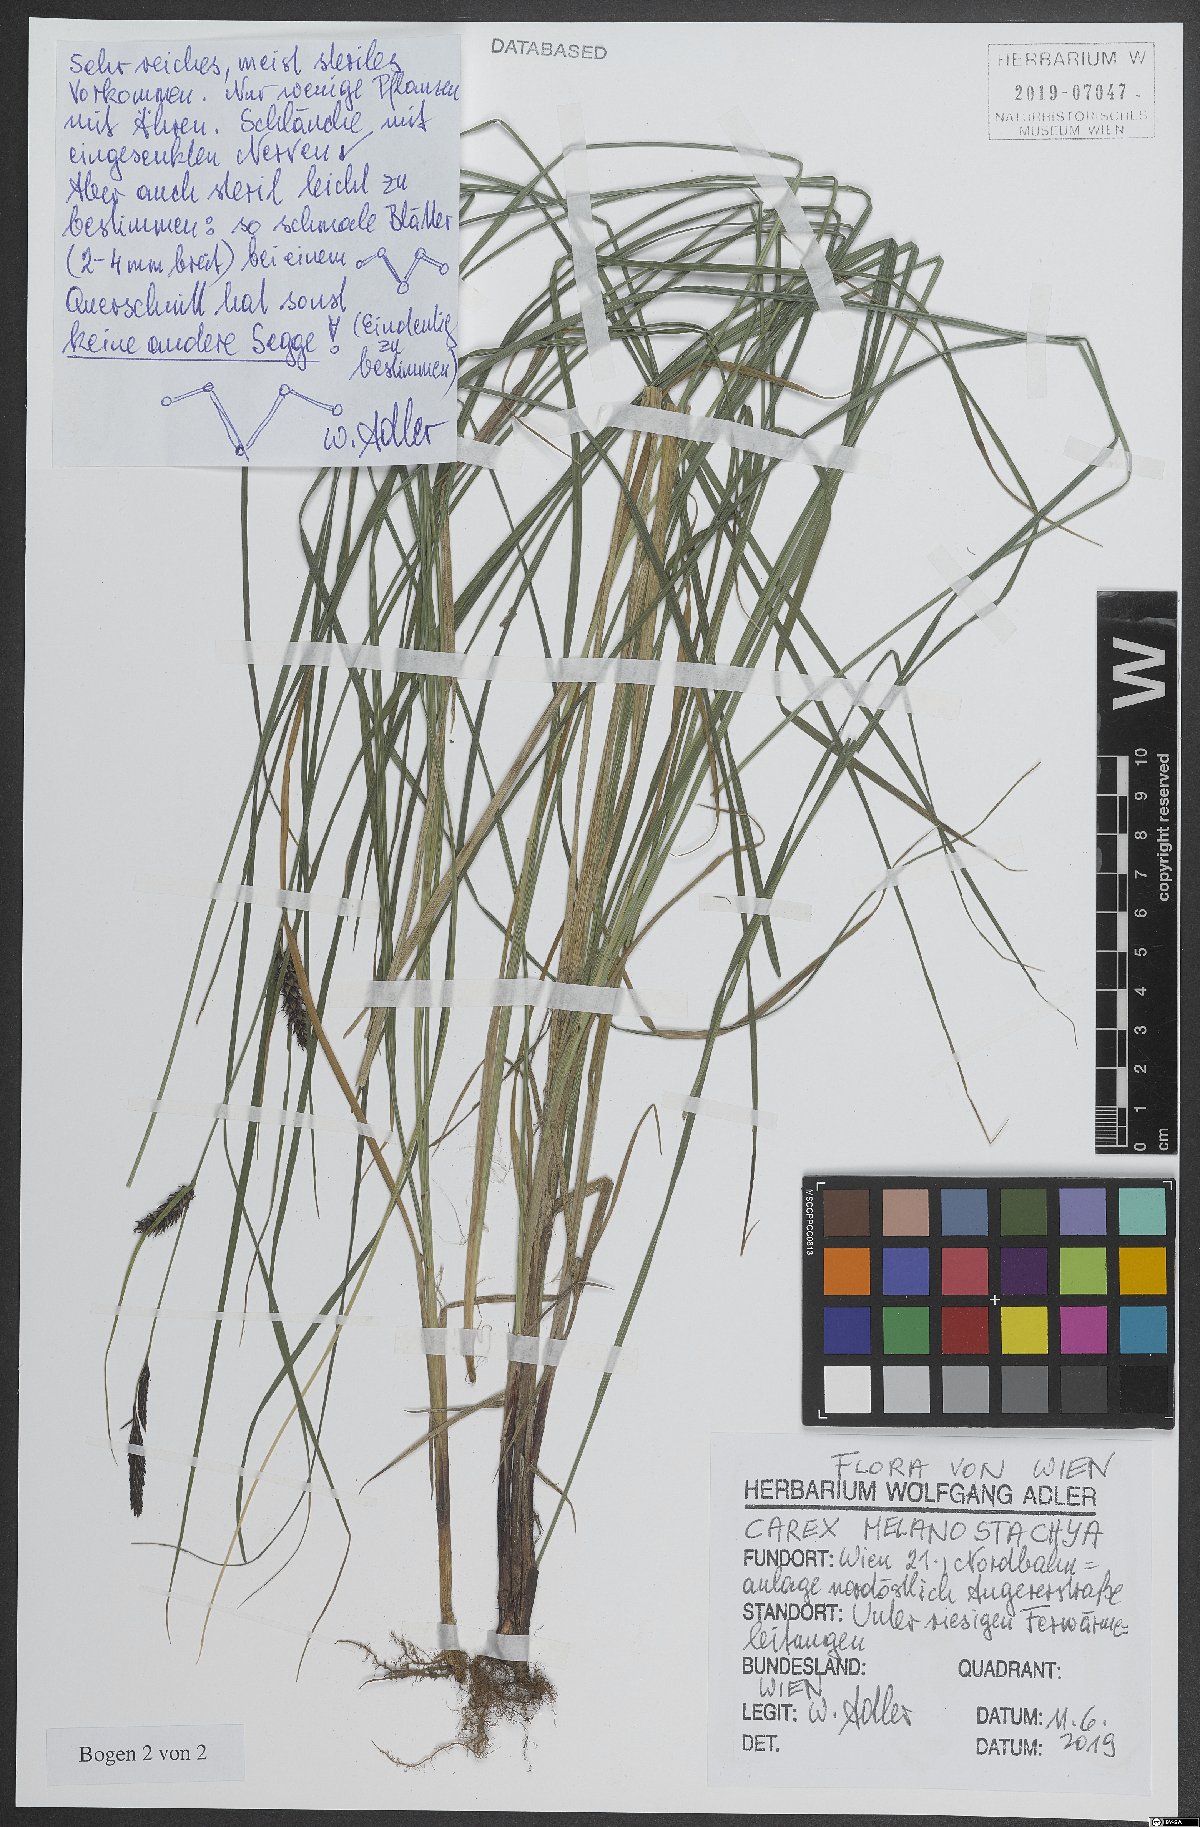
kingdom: Plantae
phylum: Tracheophyta
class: Liliopsida
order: Poales
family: Cyperaceae
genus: Carex
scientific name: Carex melanostachya
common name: Black-spiked sedge
